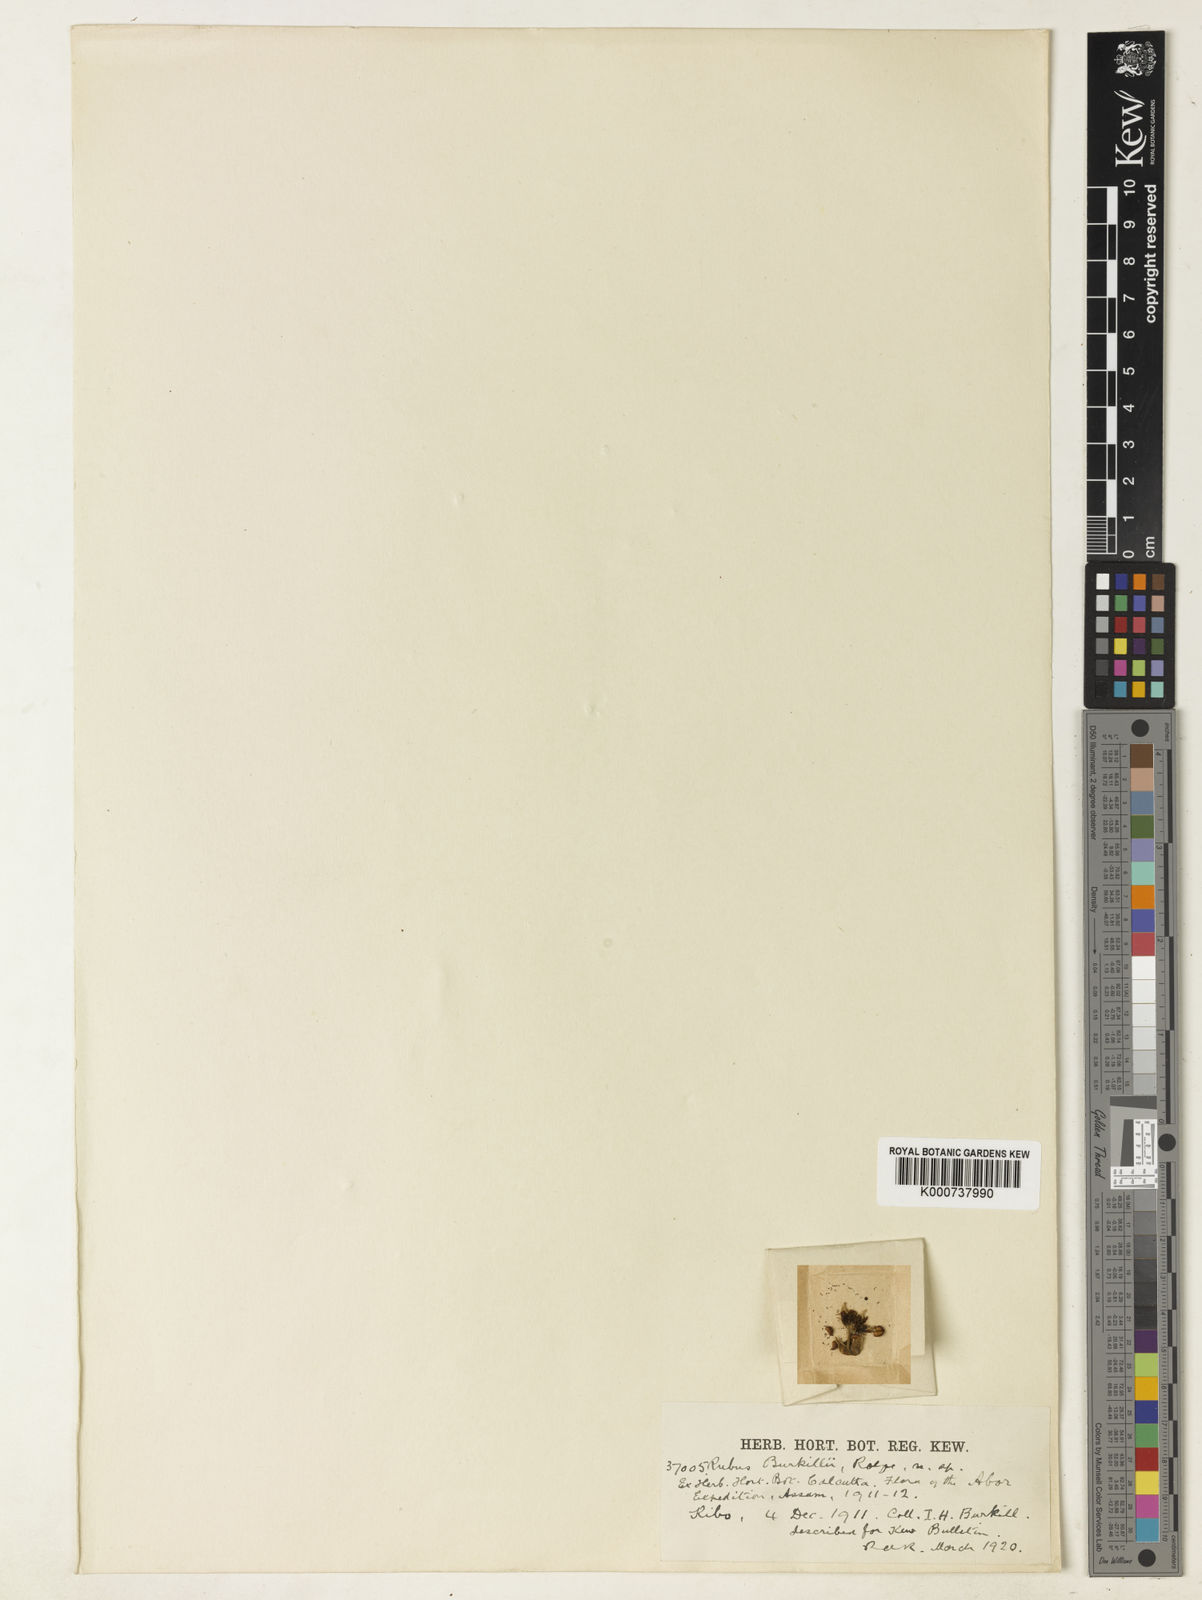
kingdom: Plantae
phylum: Tracheophyta
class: Magnoliopsida
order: Rosales
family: Rosaceae
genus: Rubus
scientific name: Rubus burkillii
